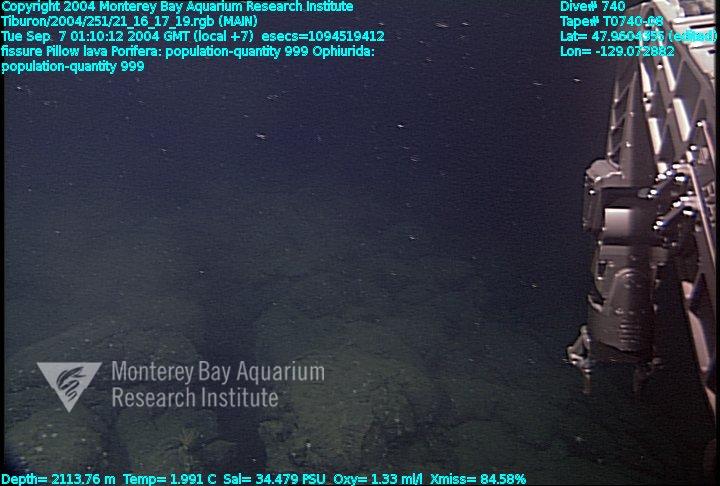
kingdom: Animalia
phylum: Porifera
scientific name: Porifera
